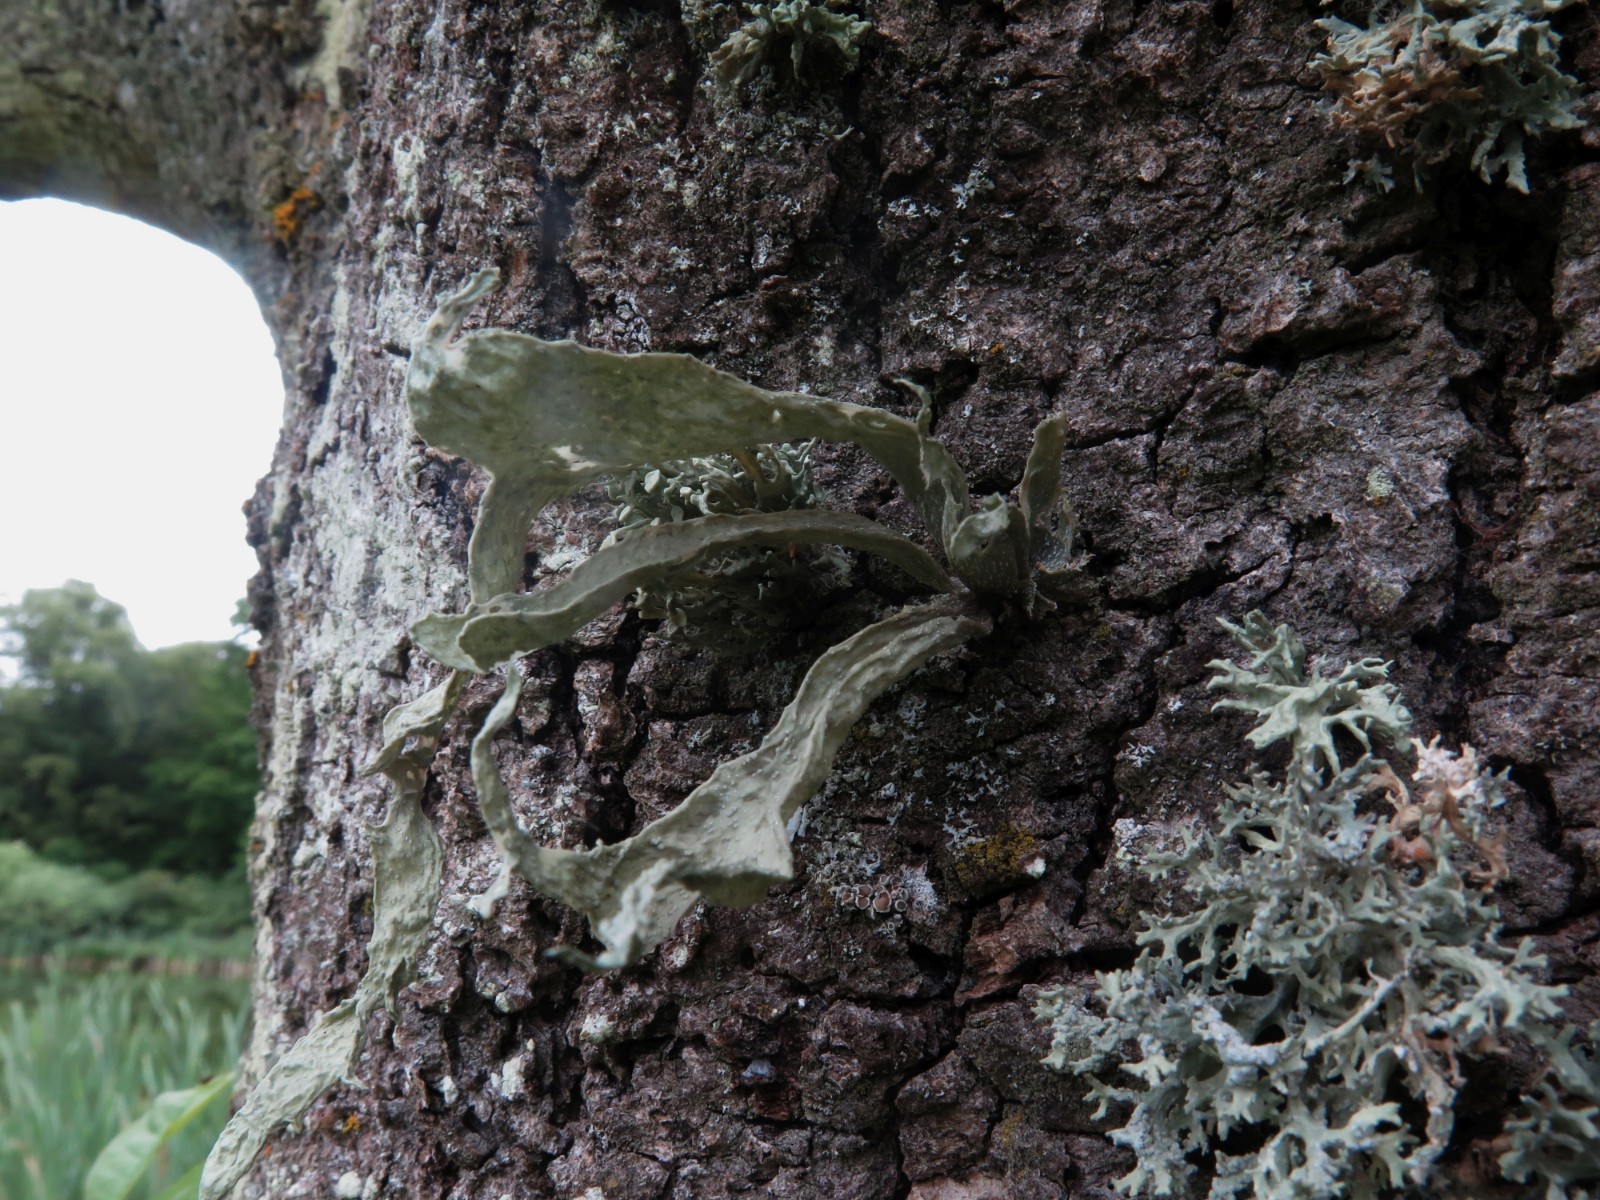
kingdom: Fungi
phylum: Ascomycota
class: Lecanoromycetes
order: Lecanorales
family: Ramalinaceae
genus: Ramalina
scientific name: Ramalina fraxinea
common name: stor grenlav
